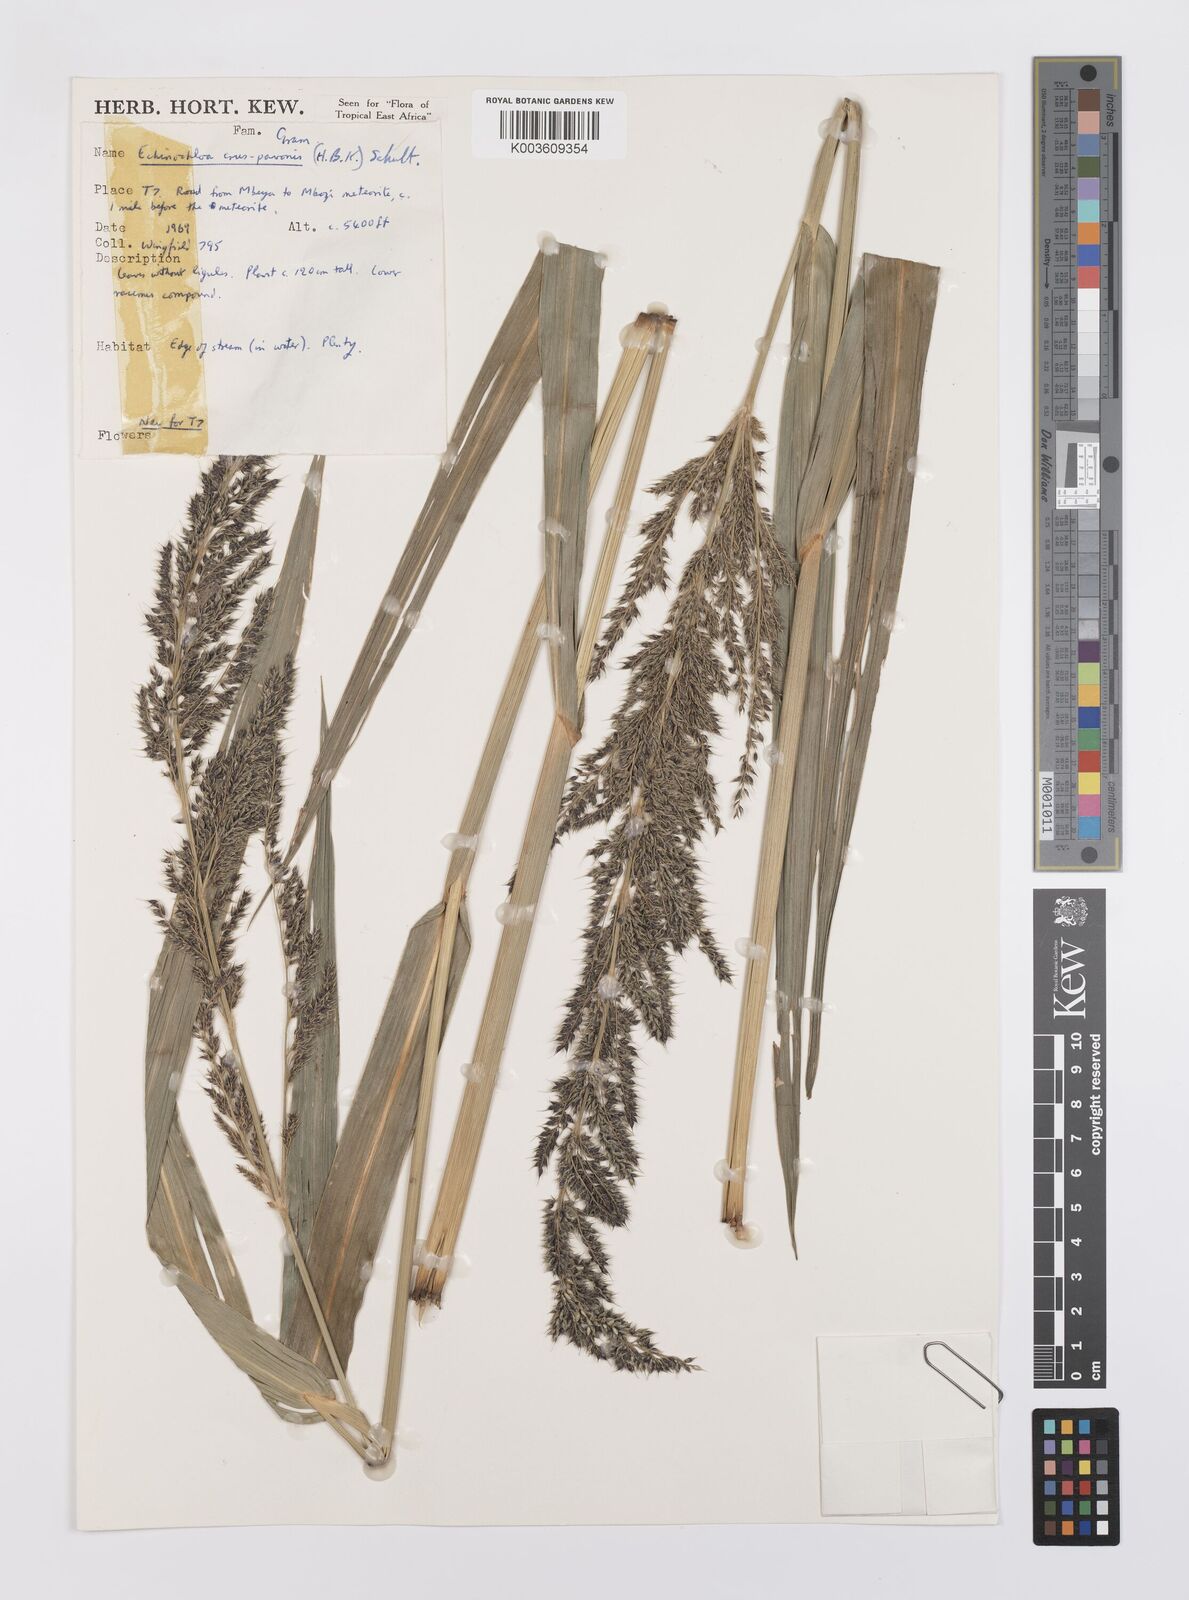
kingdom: Plantae
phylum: Tracheophyta
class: Liliopsida
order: Poales
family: Poaceae
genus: Echinochloa
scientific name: Echinochloa crus-pavonis
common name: Gulf cockspur grass
